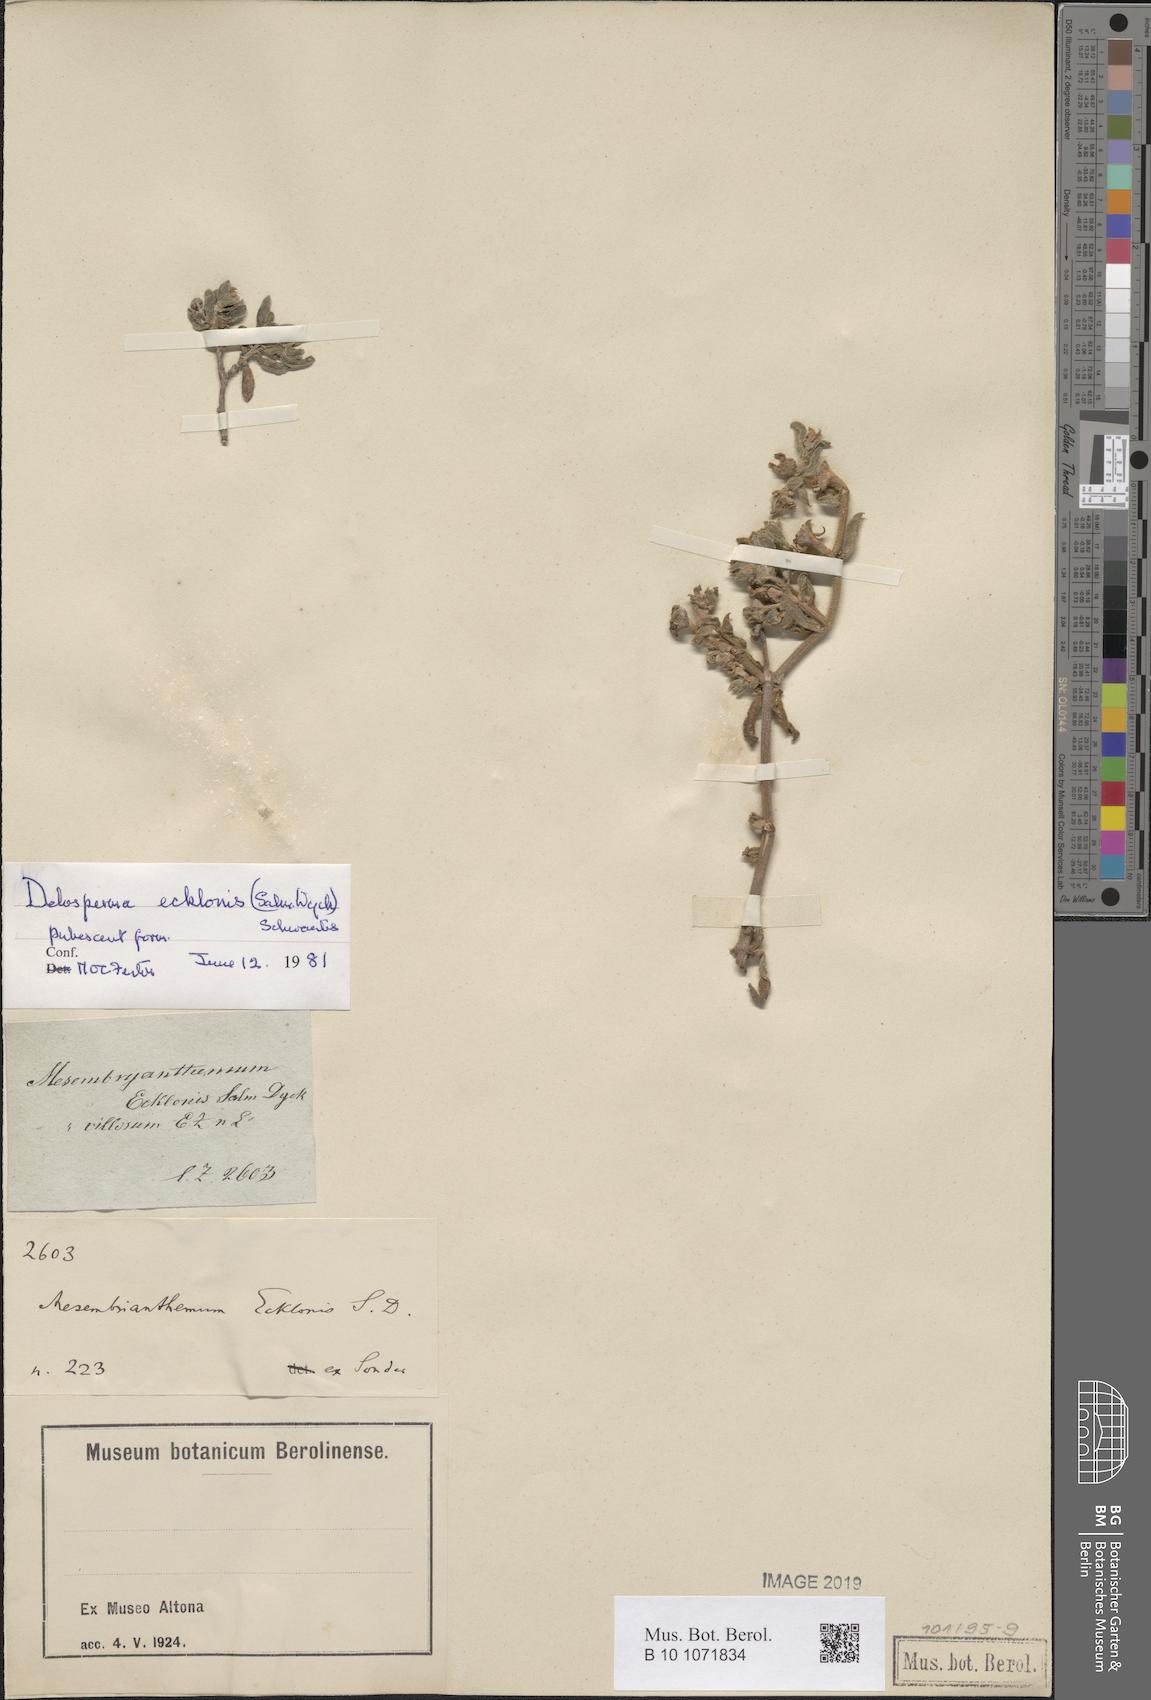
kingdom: Plantae
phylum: Tracheophyta
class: Magnoliopsida
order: Caryophyllales
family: Aizoaceae
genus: Delosperma
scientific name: Delosperma invalidum
